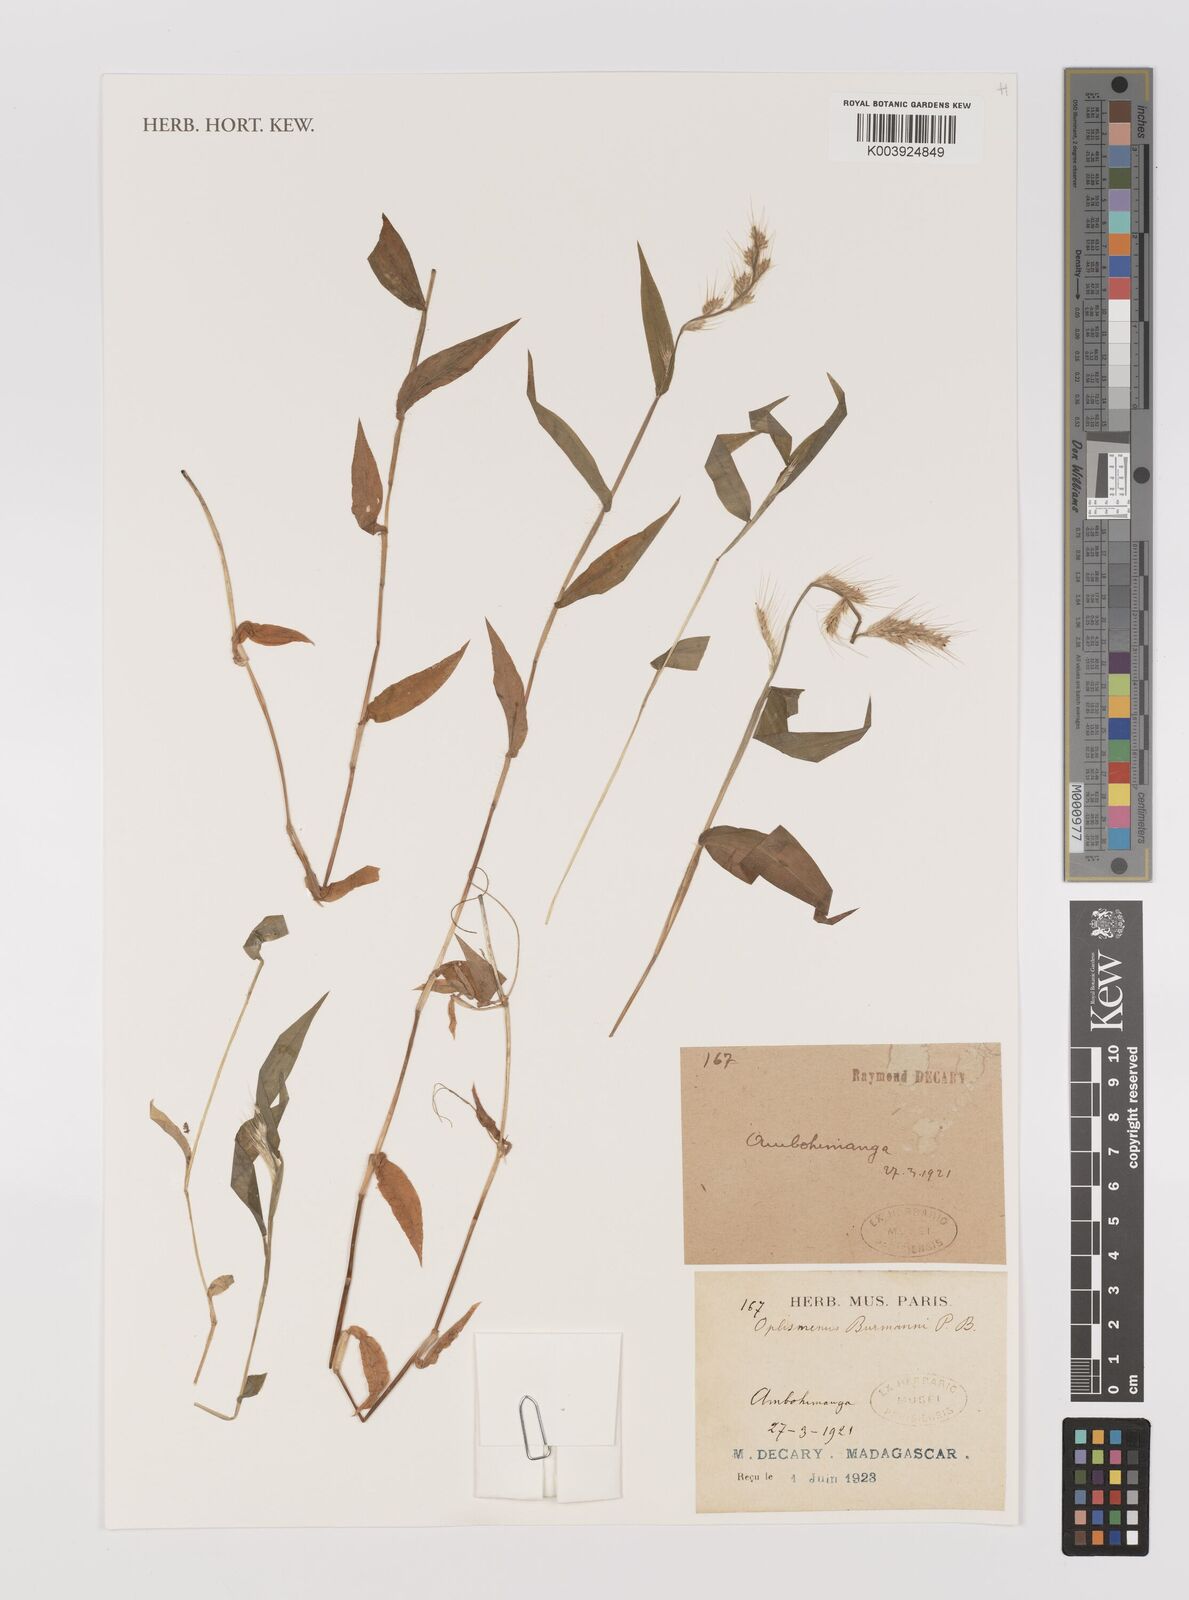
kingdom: Plantae
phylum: Tracheophyta
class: Liliopsida
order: Poales
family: Poaceae
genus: Oplismenus
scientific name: Oplismenus burmanni
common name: Burmann's basketgrass
